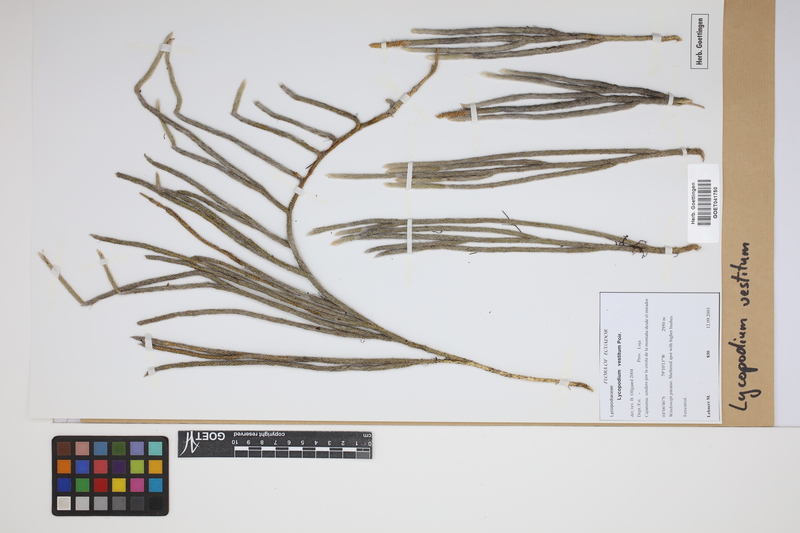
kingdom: Plantae
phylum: Tracheophyta
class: Lycopodiopsida
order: Lycopodiales
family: Lycopodiaceae
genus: Lycopodium
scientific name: Lycopodium vestitum
